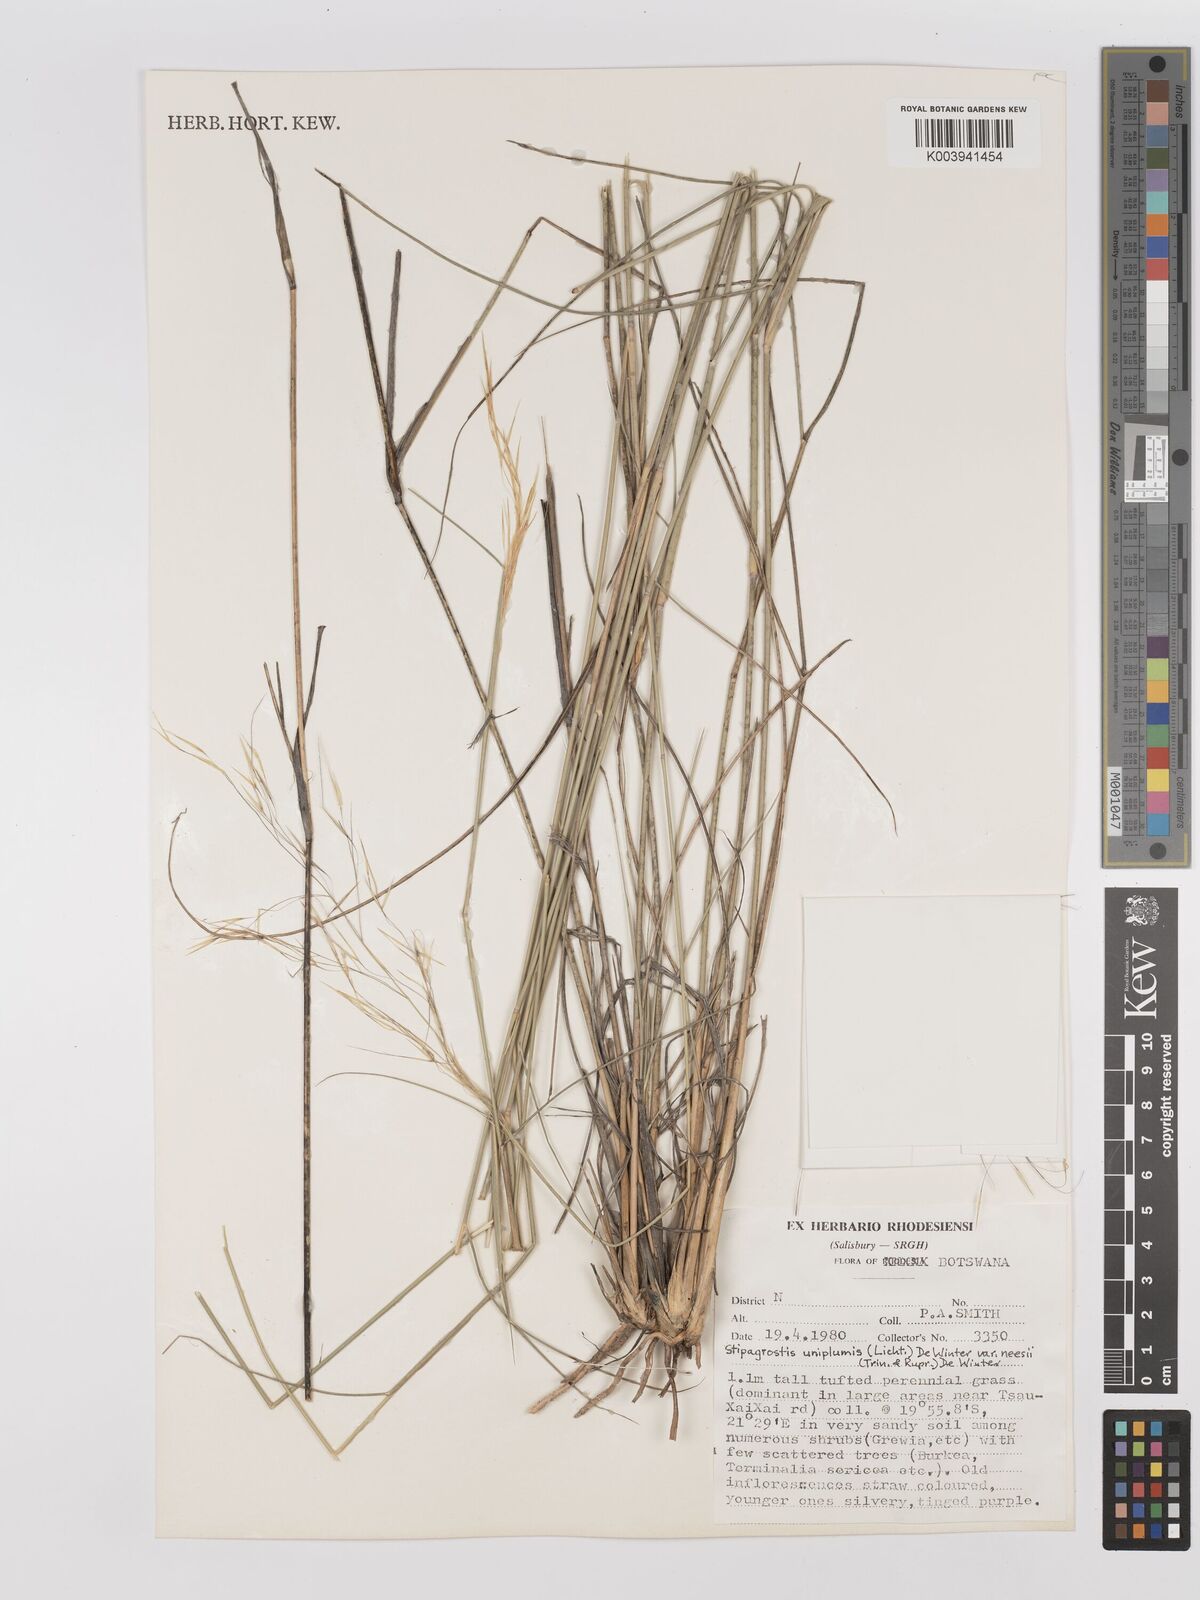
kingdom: Plantae
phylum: Tracheophyta
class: Liliopsida
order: Poales
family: Poaceae
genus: Stipagrostis
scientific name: Stipagrostis uniplumis
